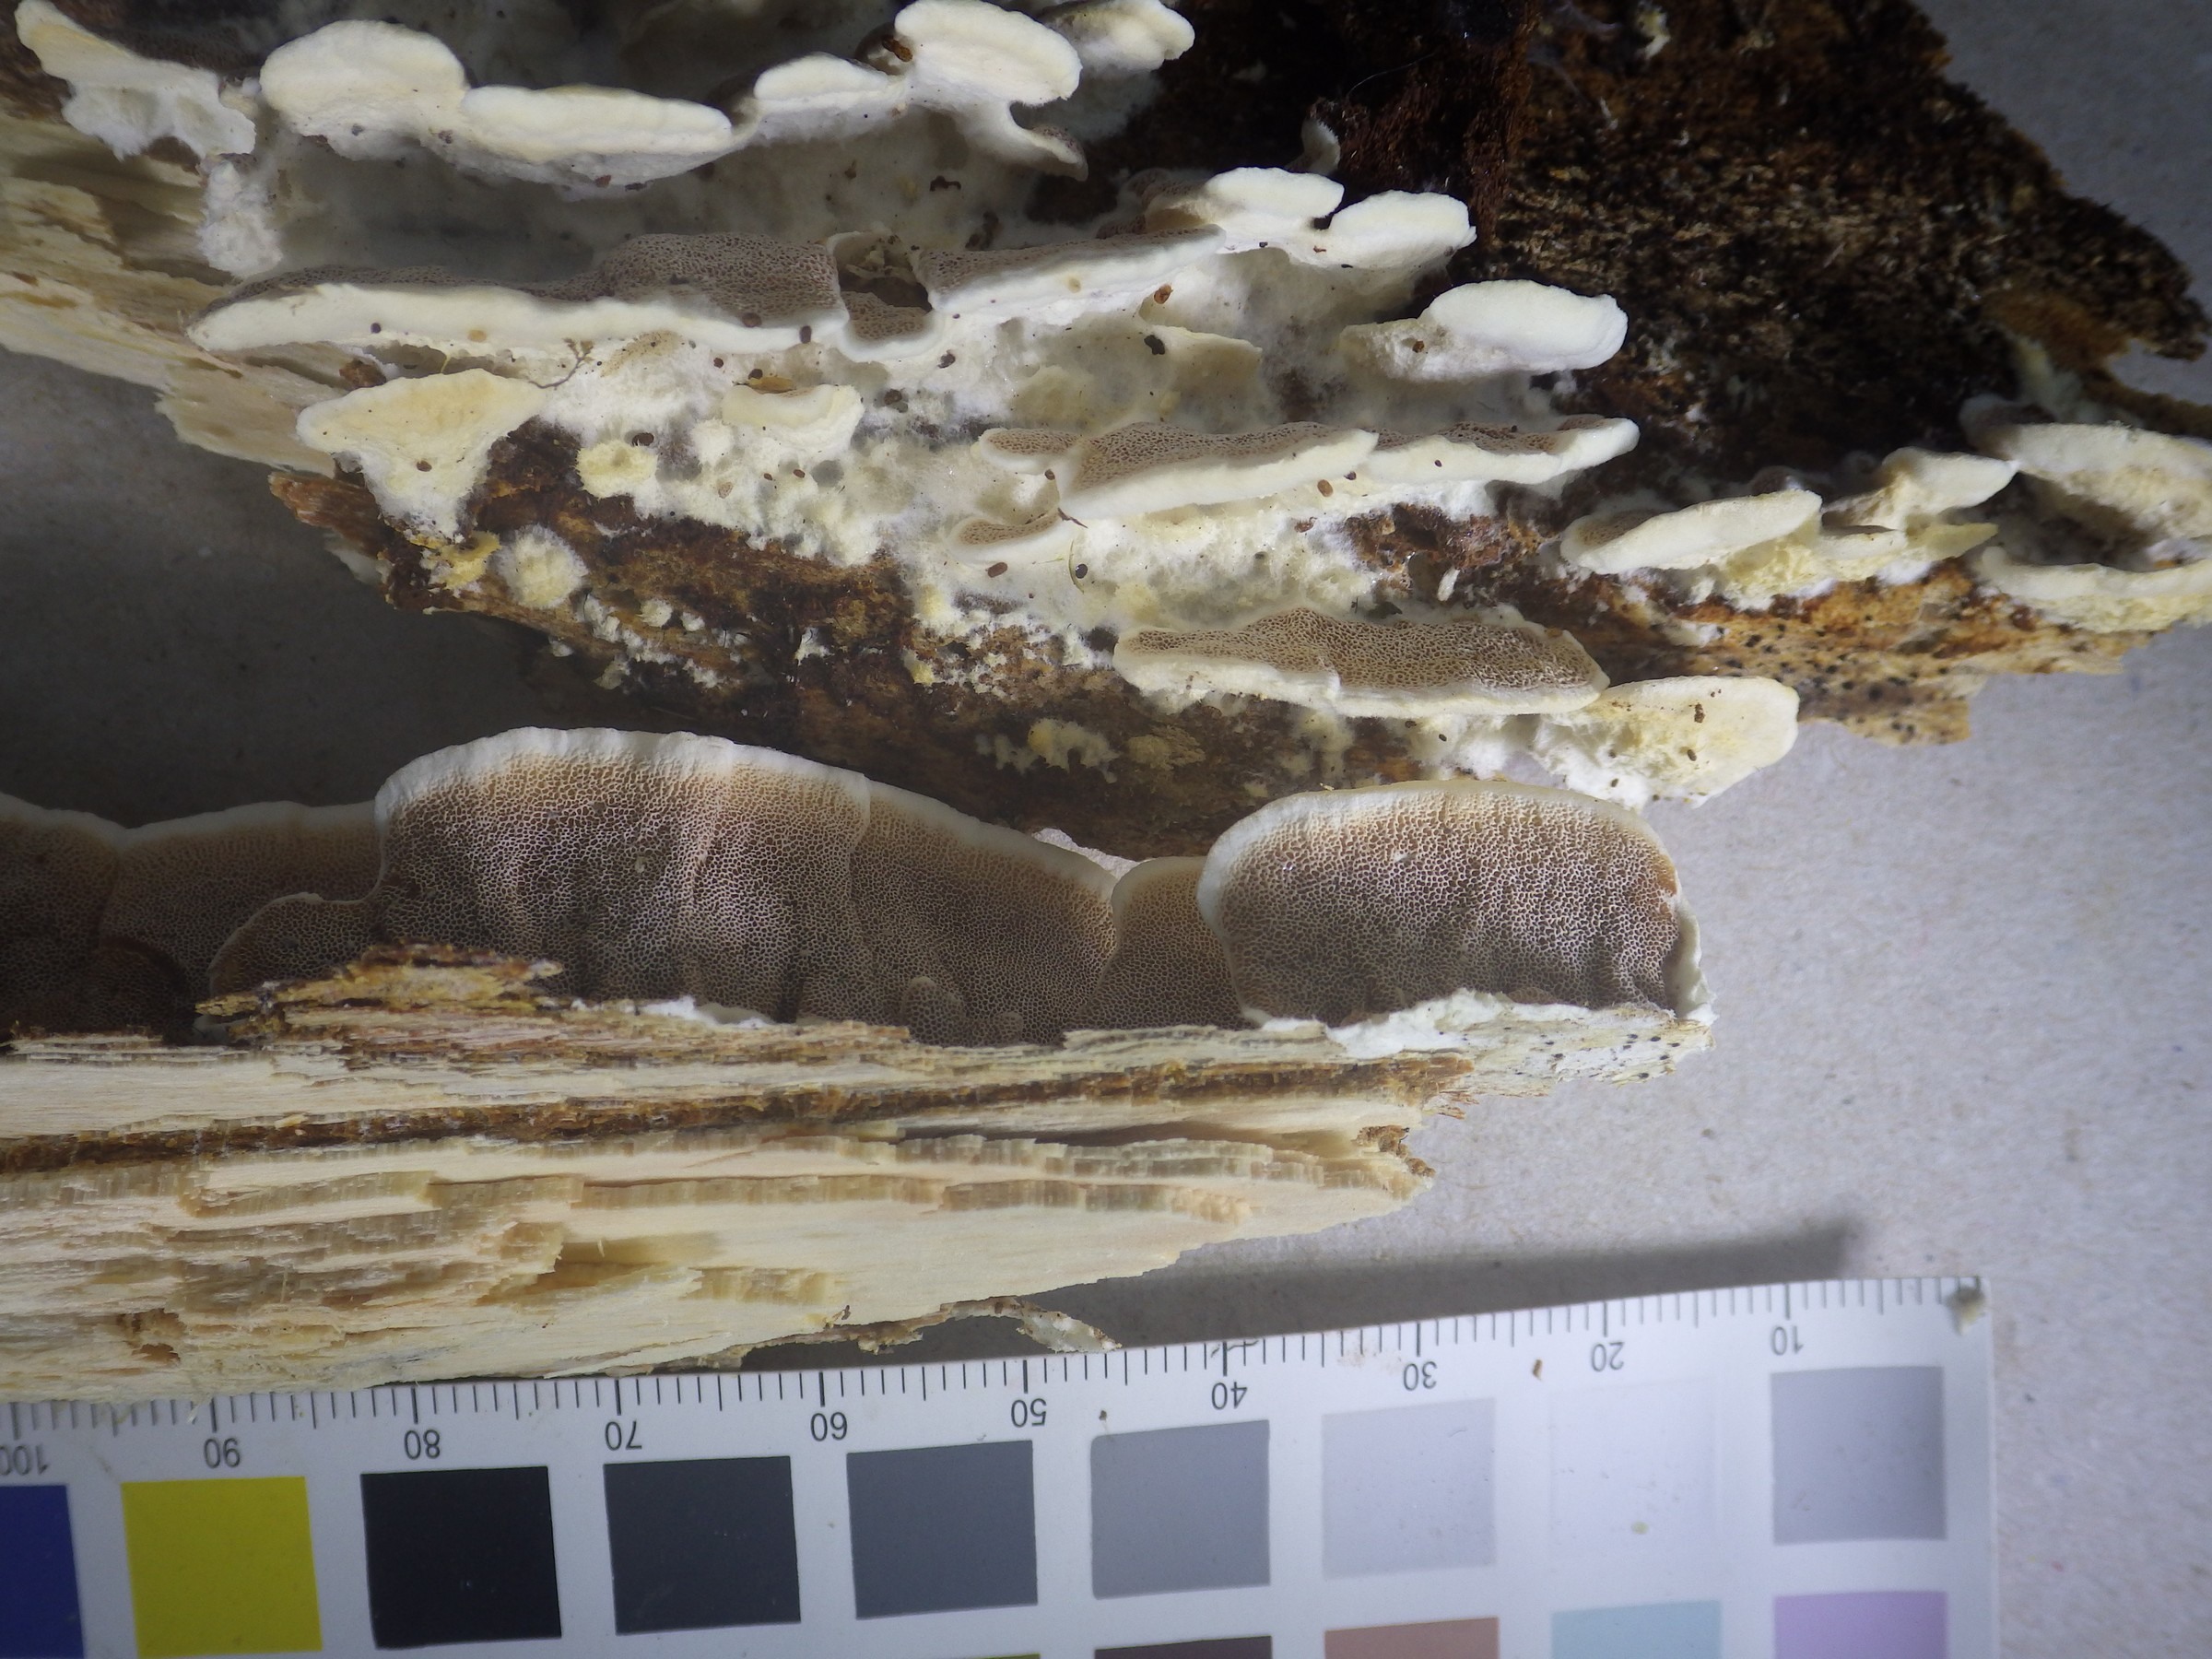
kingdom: Fungi
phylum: Basidiomycota
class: Agaricomycetes
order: Polyporales
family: Irpicaceae
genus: Vitreoporus
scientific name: Vitreoporus dichrous
